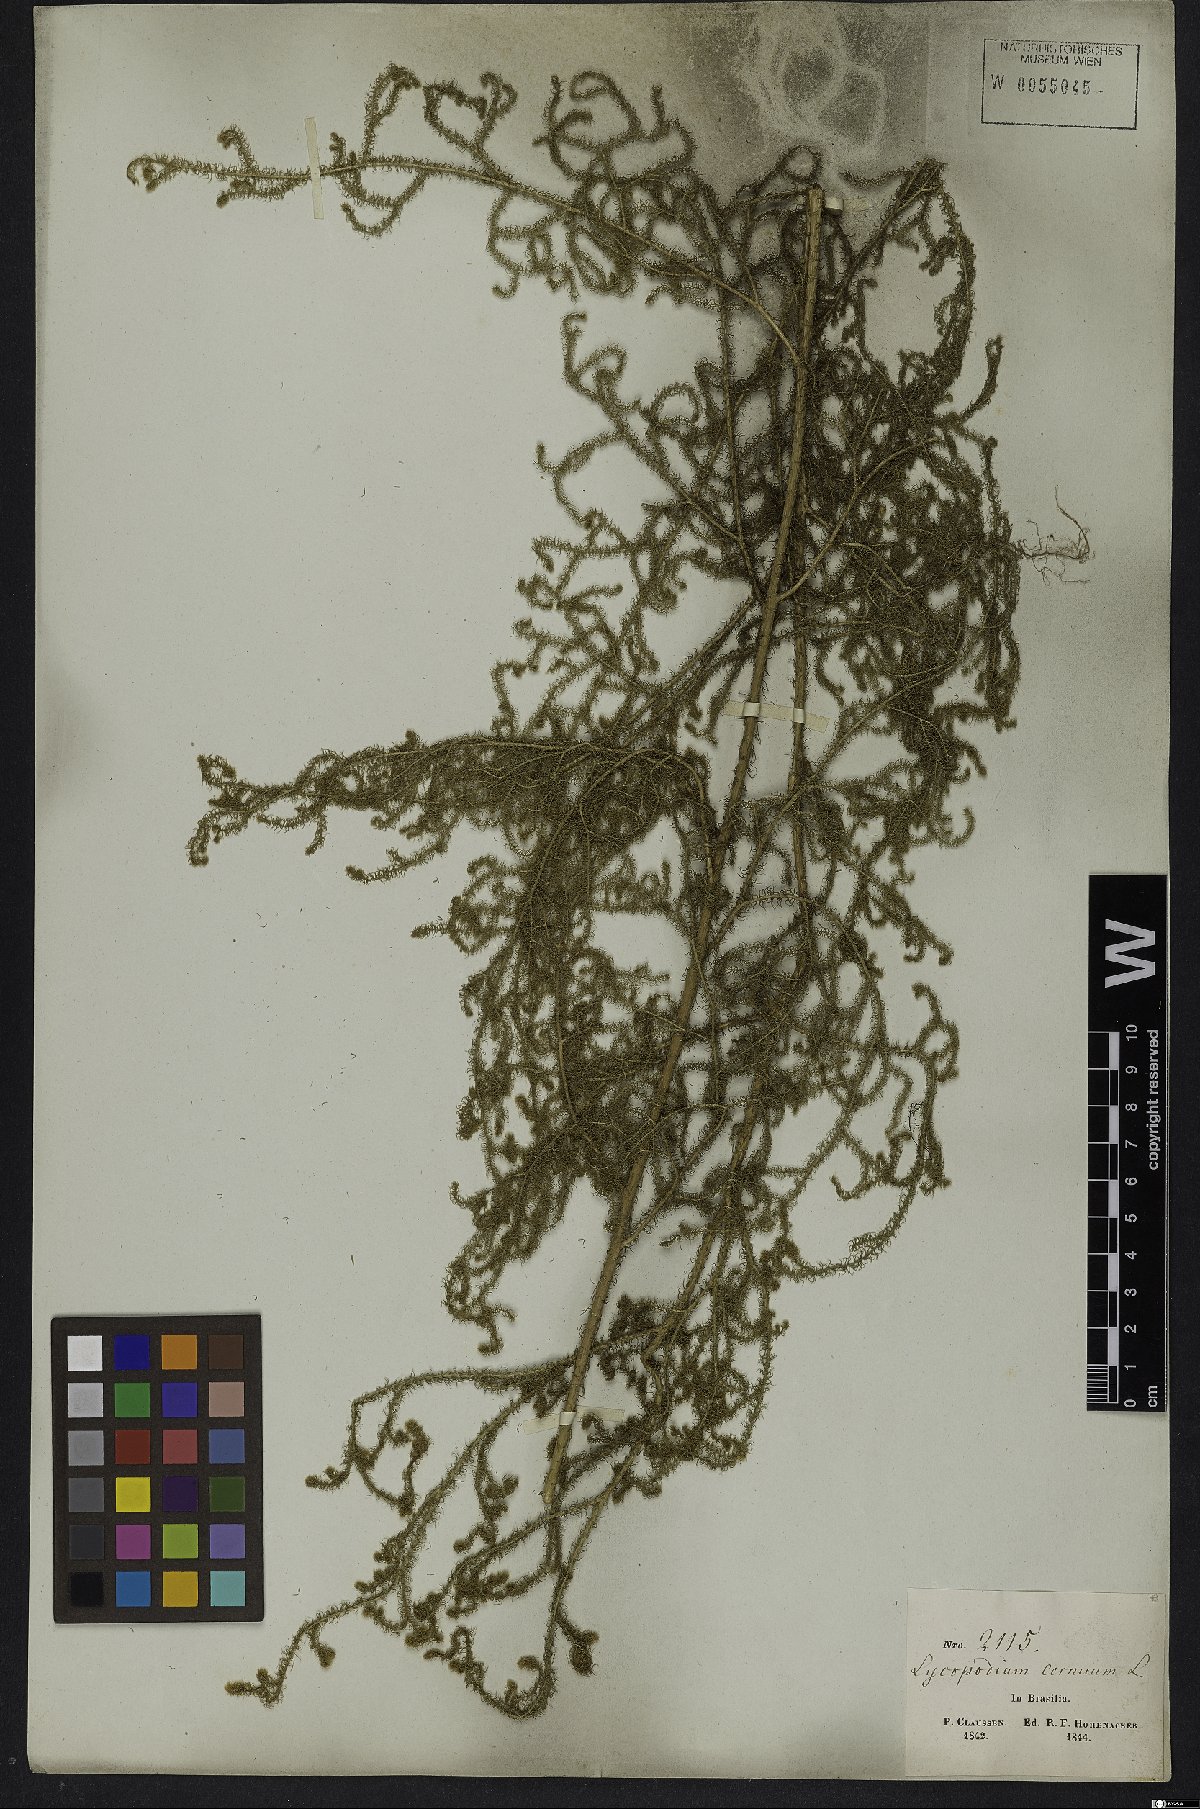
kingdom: Plantae
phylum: Tracheophyta
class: Lycopodiopsida
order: Lycopodiales
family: Lycopodiaceae
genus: Palhinhaea
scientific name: Palhinhaea cernua
